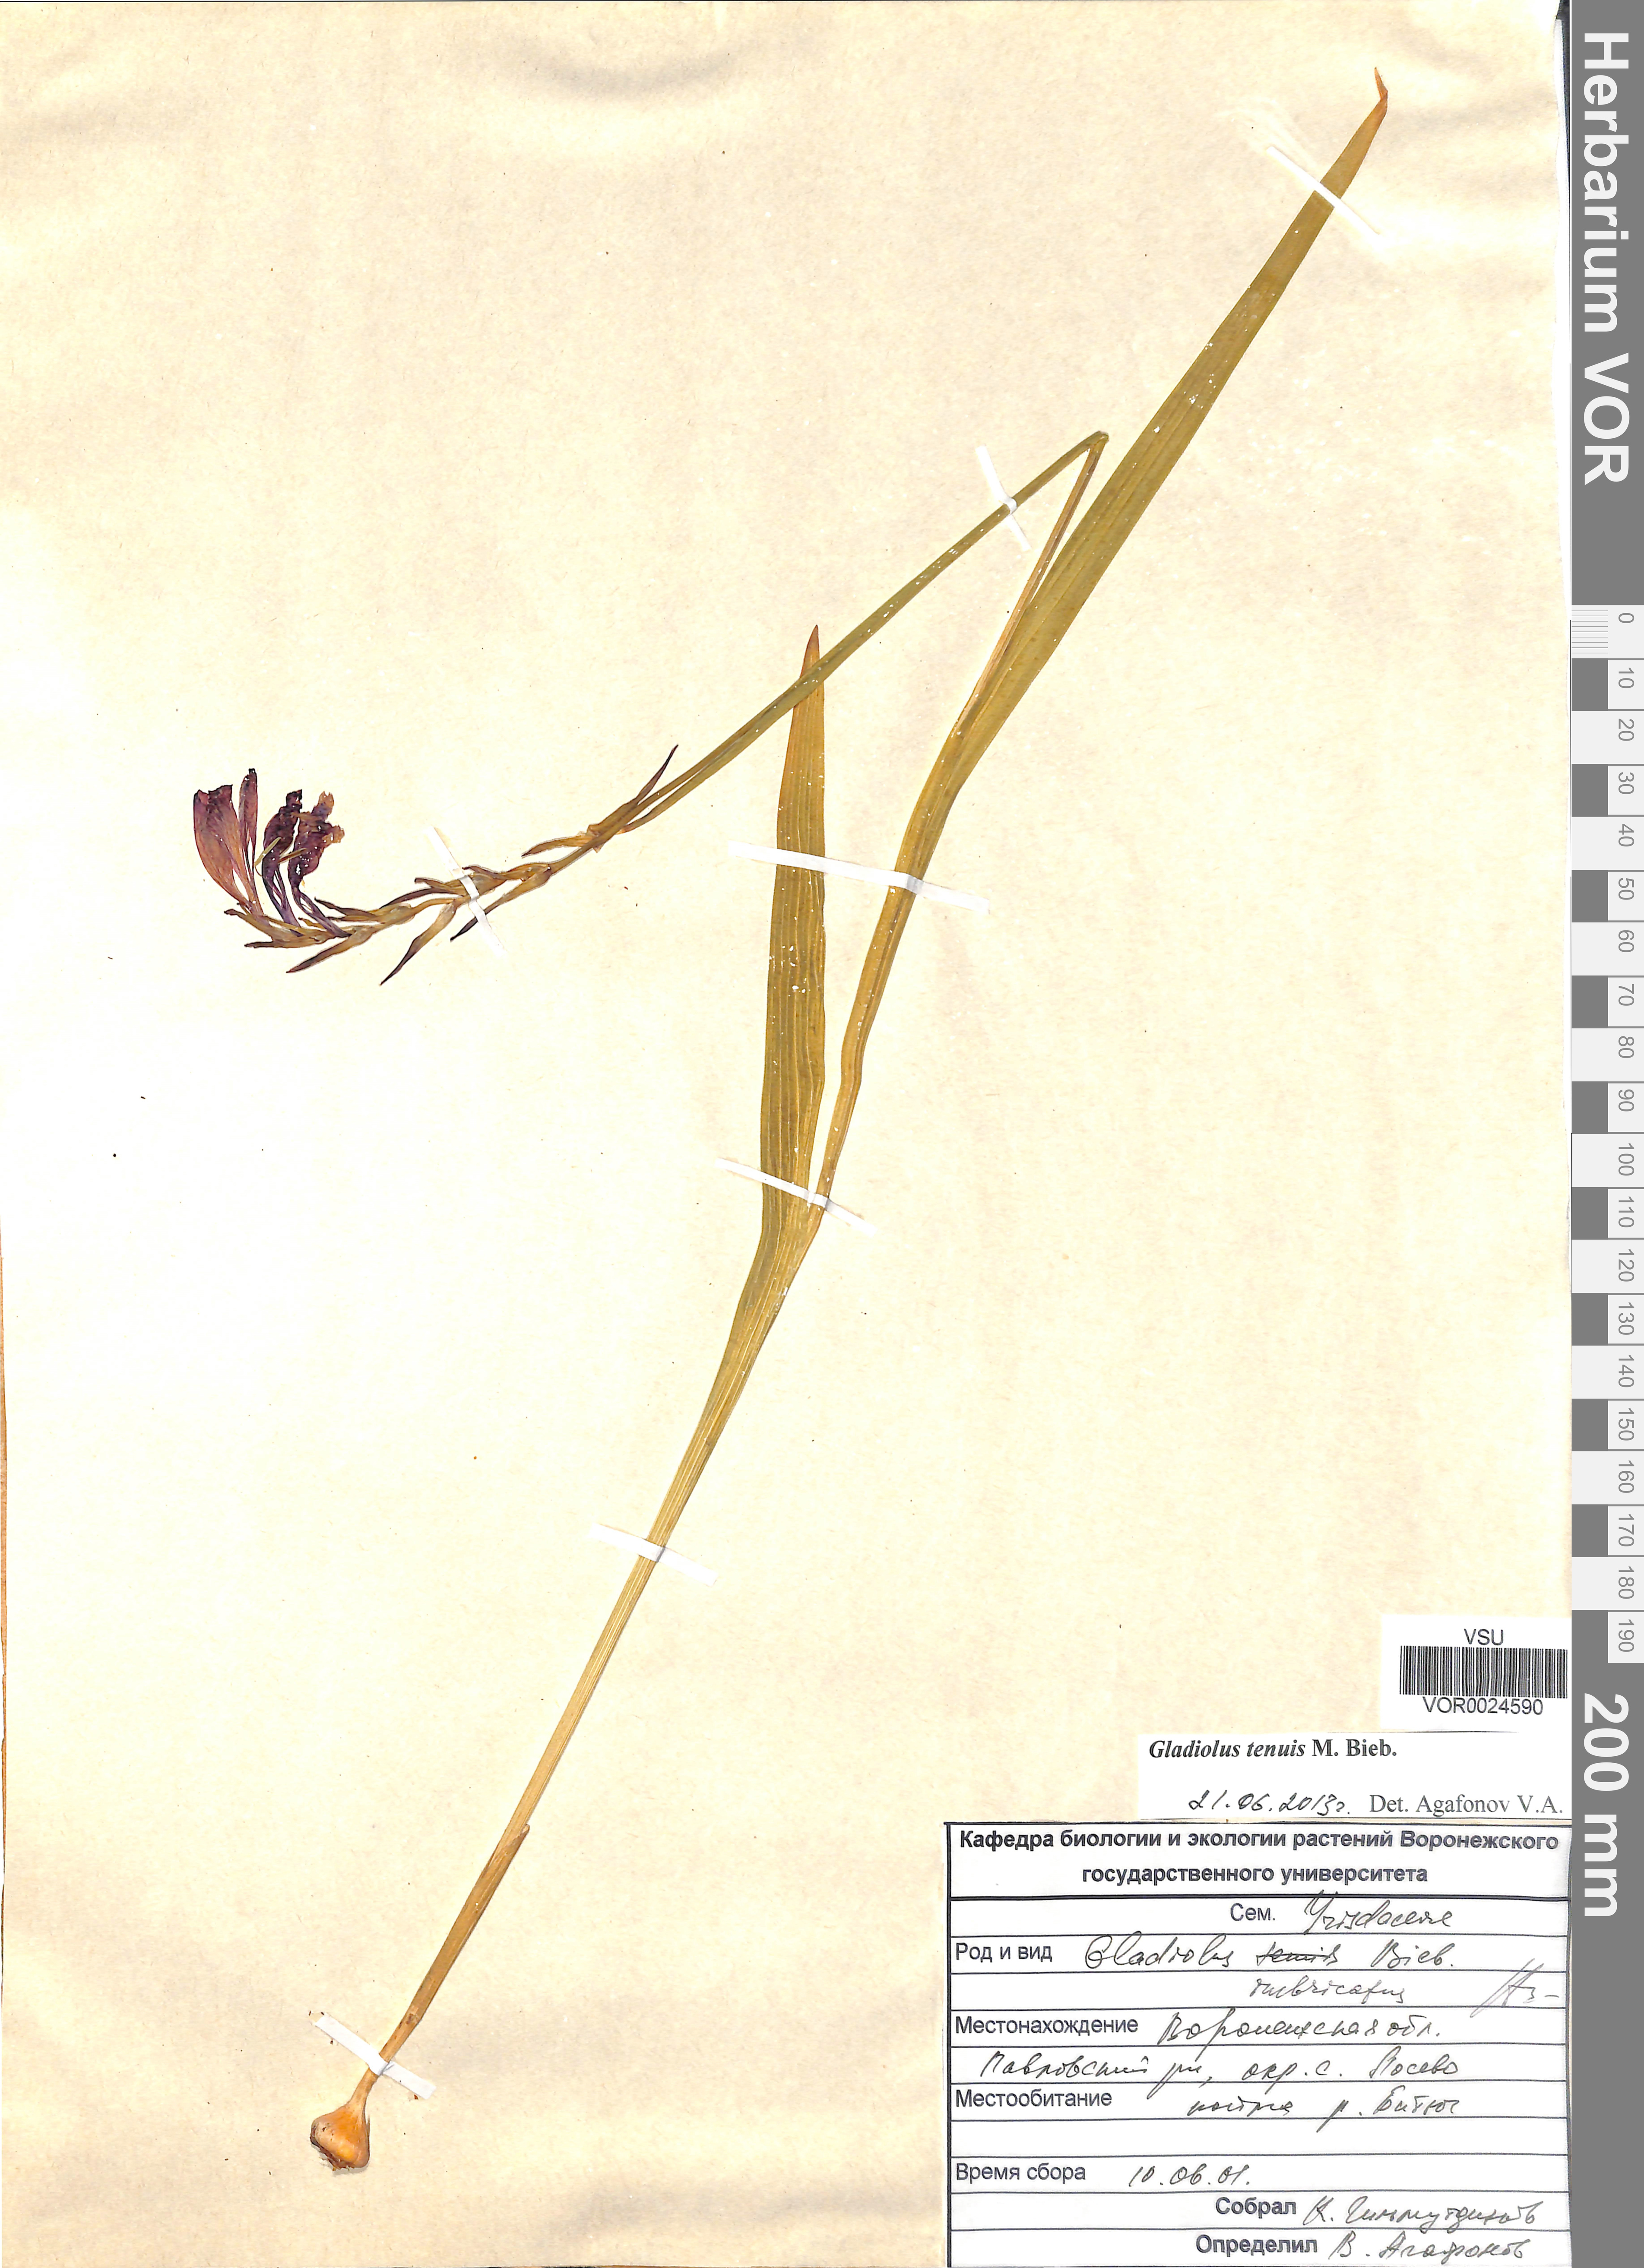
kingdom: Plantae
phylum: Tracheophyta
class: Liliopsida
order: Asparagales
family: Iridaceae
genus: Gladiolus
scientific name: Gladiolus tenuis
